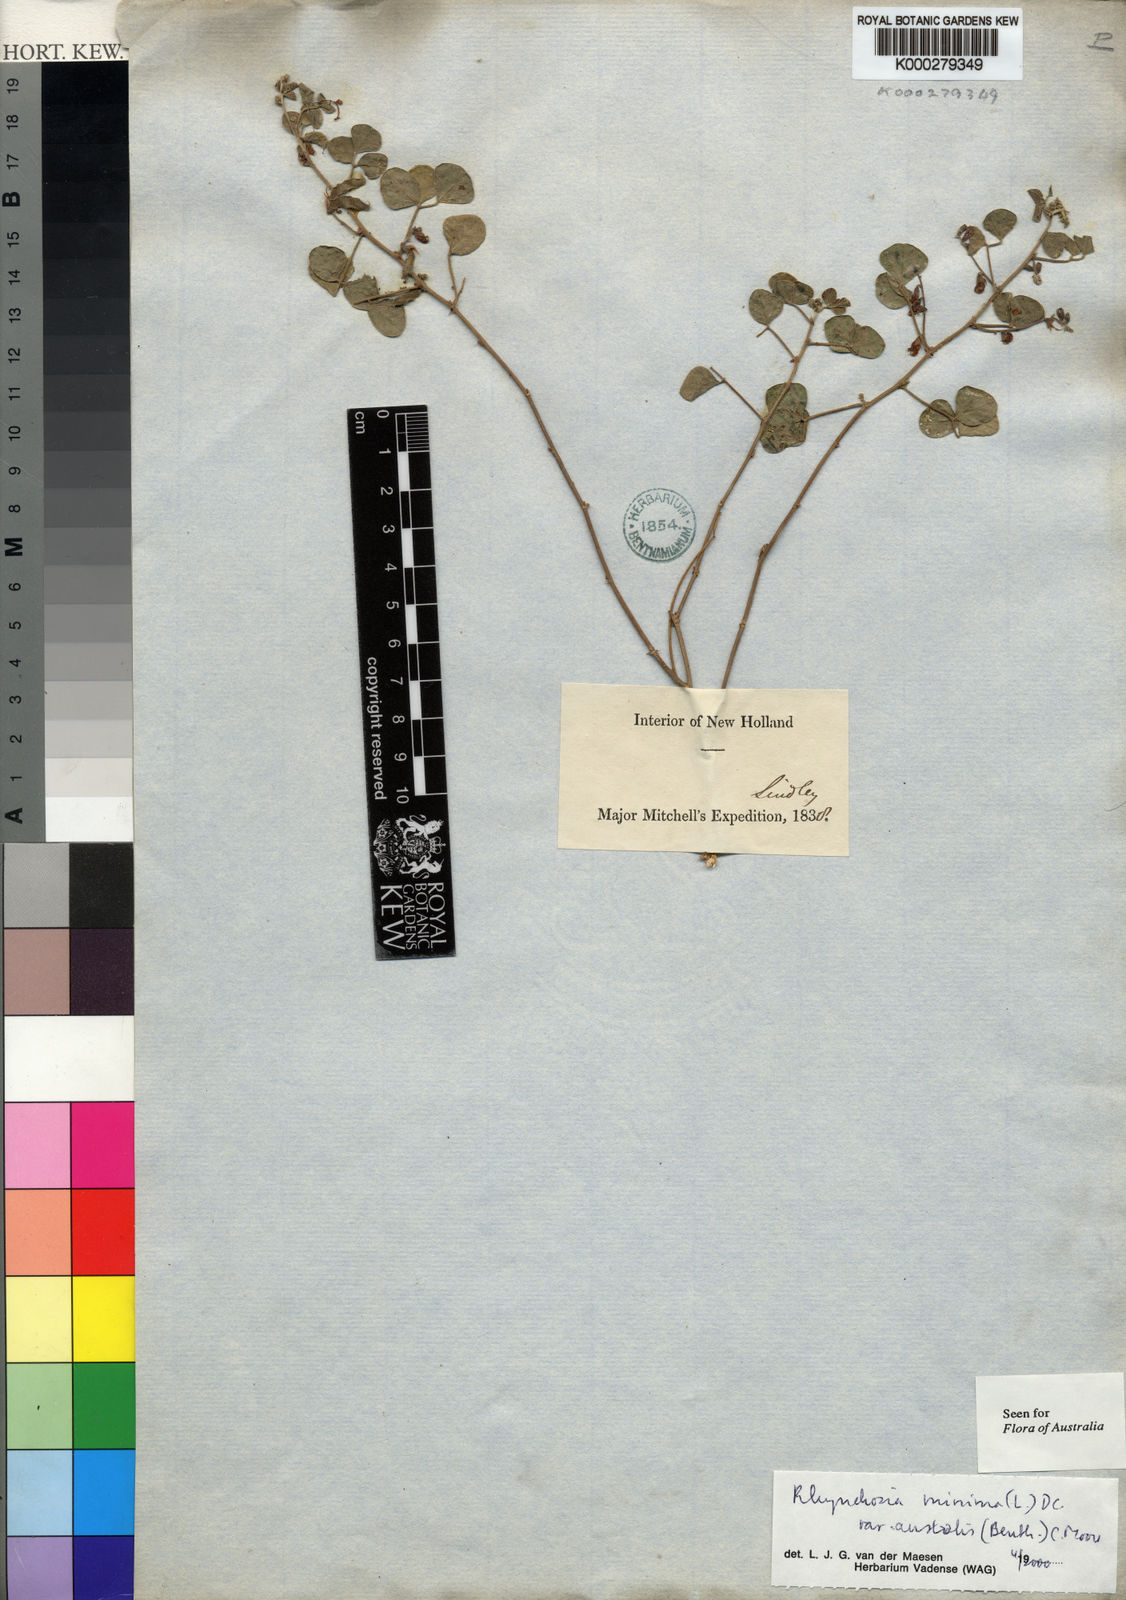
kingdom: Plantae
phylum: Tracheophyta
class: Magnoliopsida
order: Fabales
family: Fabaceae
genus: Rhynchosia
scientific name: Rhynchosia australis
